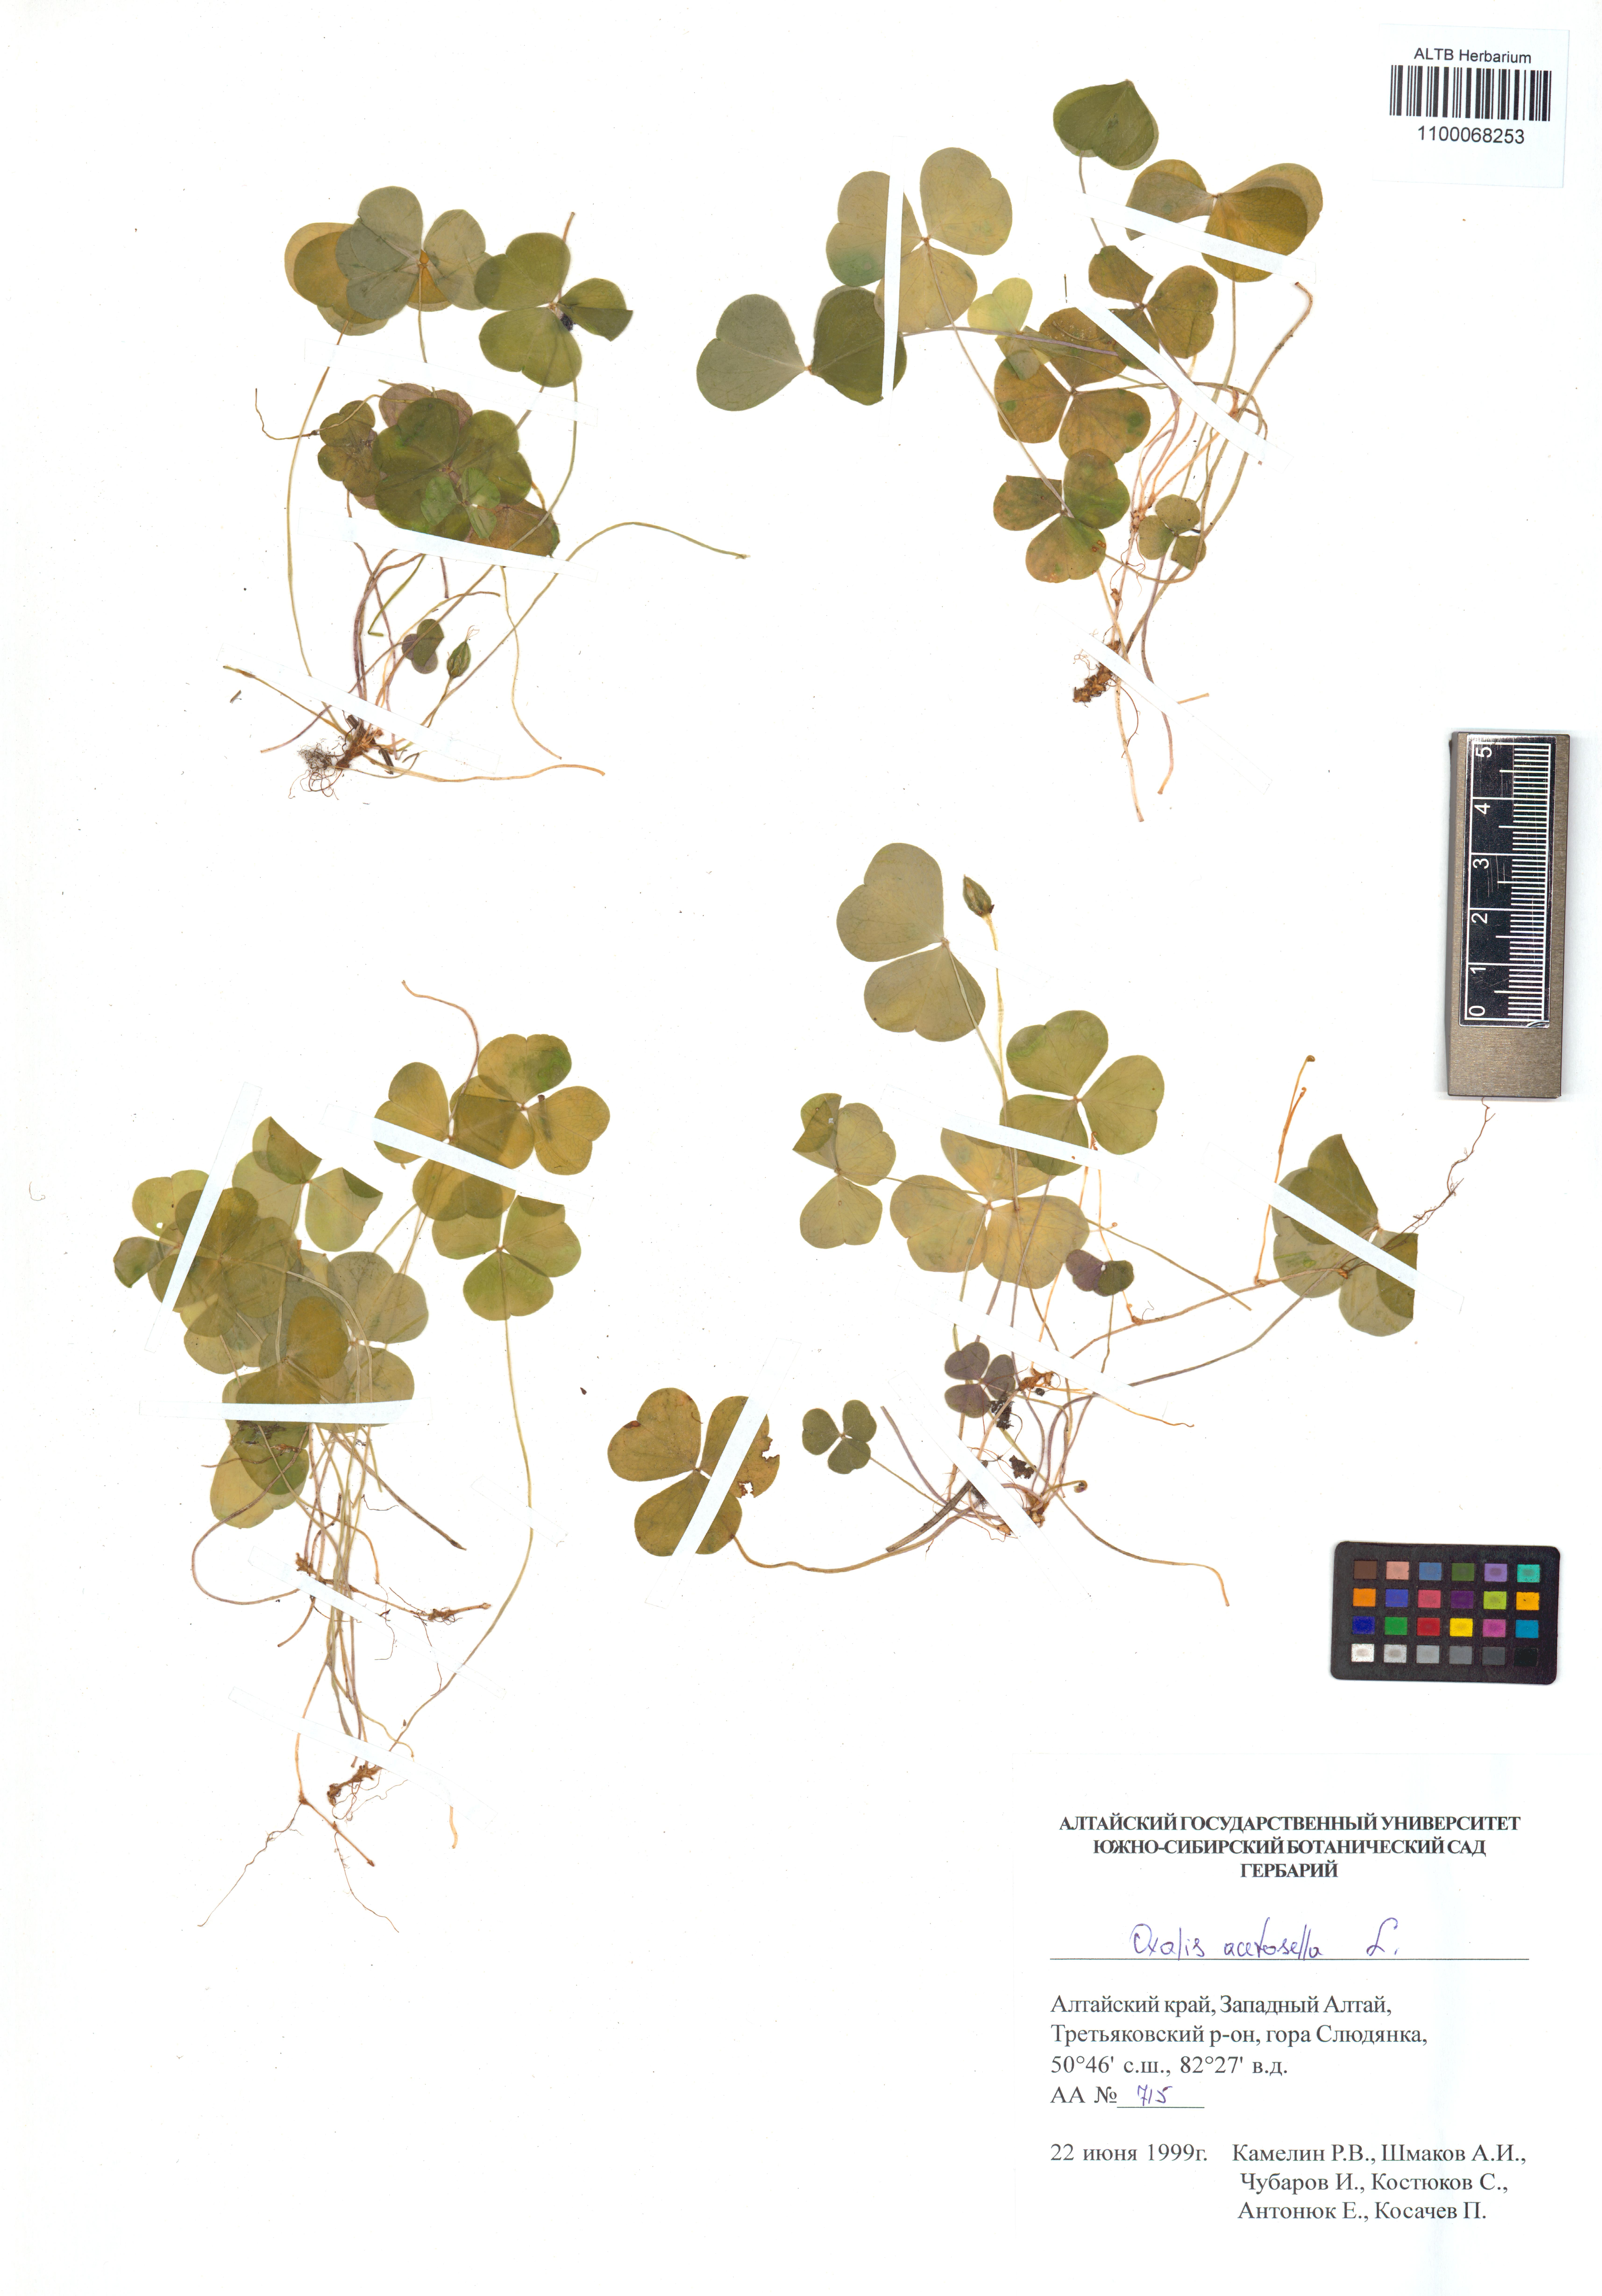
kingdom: Plantae
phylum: Tracheophyta
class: Magnoliopsida
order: Oxalidales
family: Oxalidaceae
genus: Oxalis
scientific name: Oxalis acetosella
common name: Wood-sorrel
